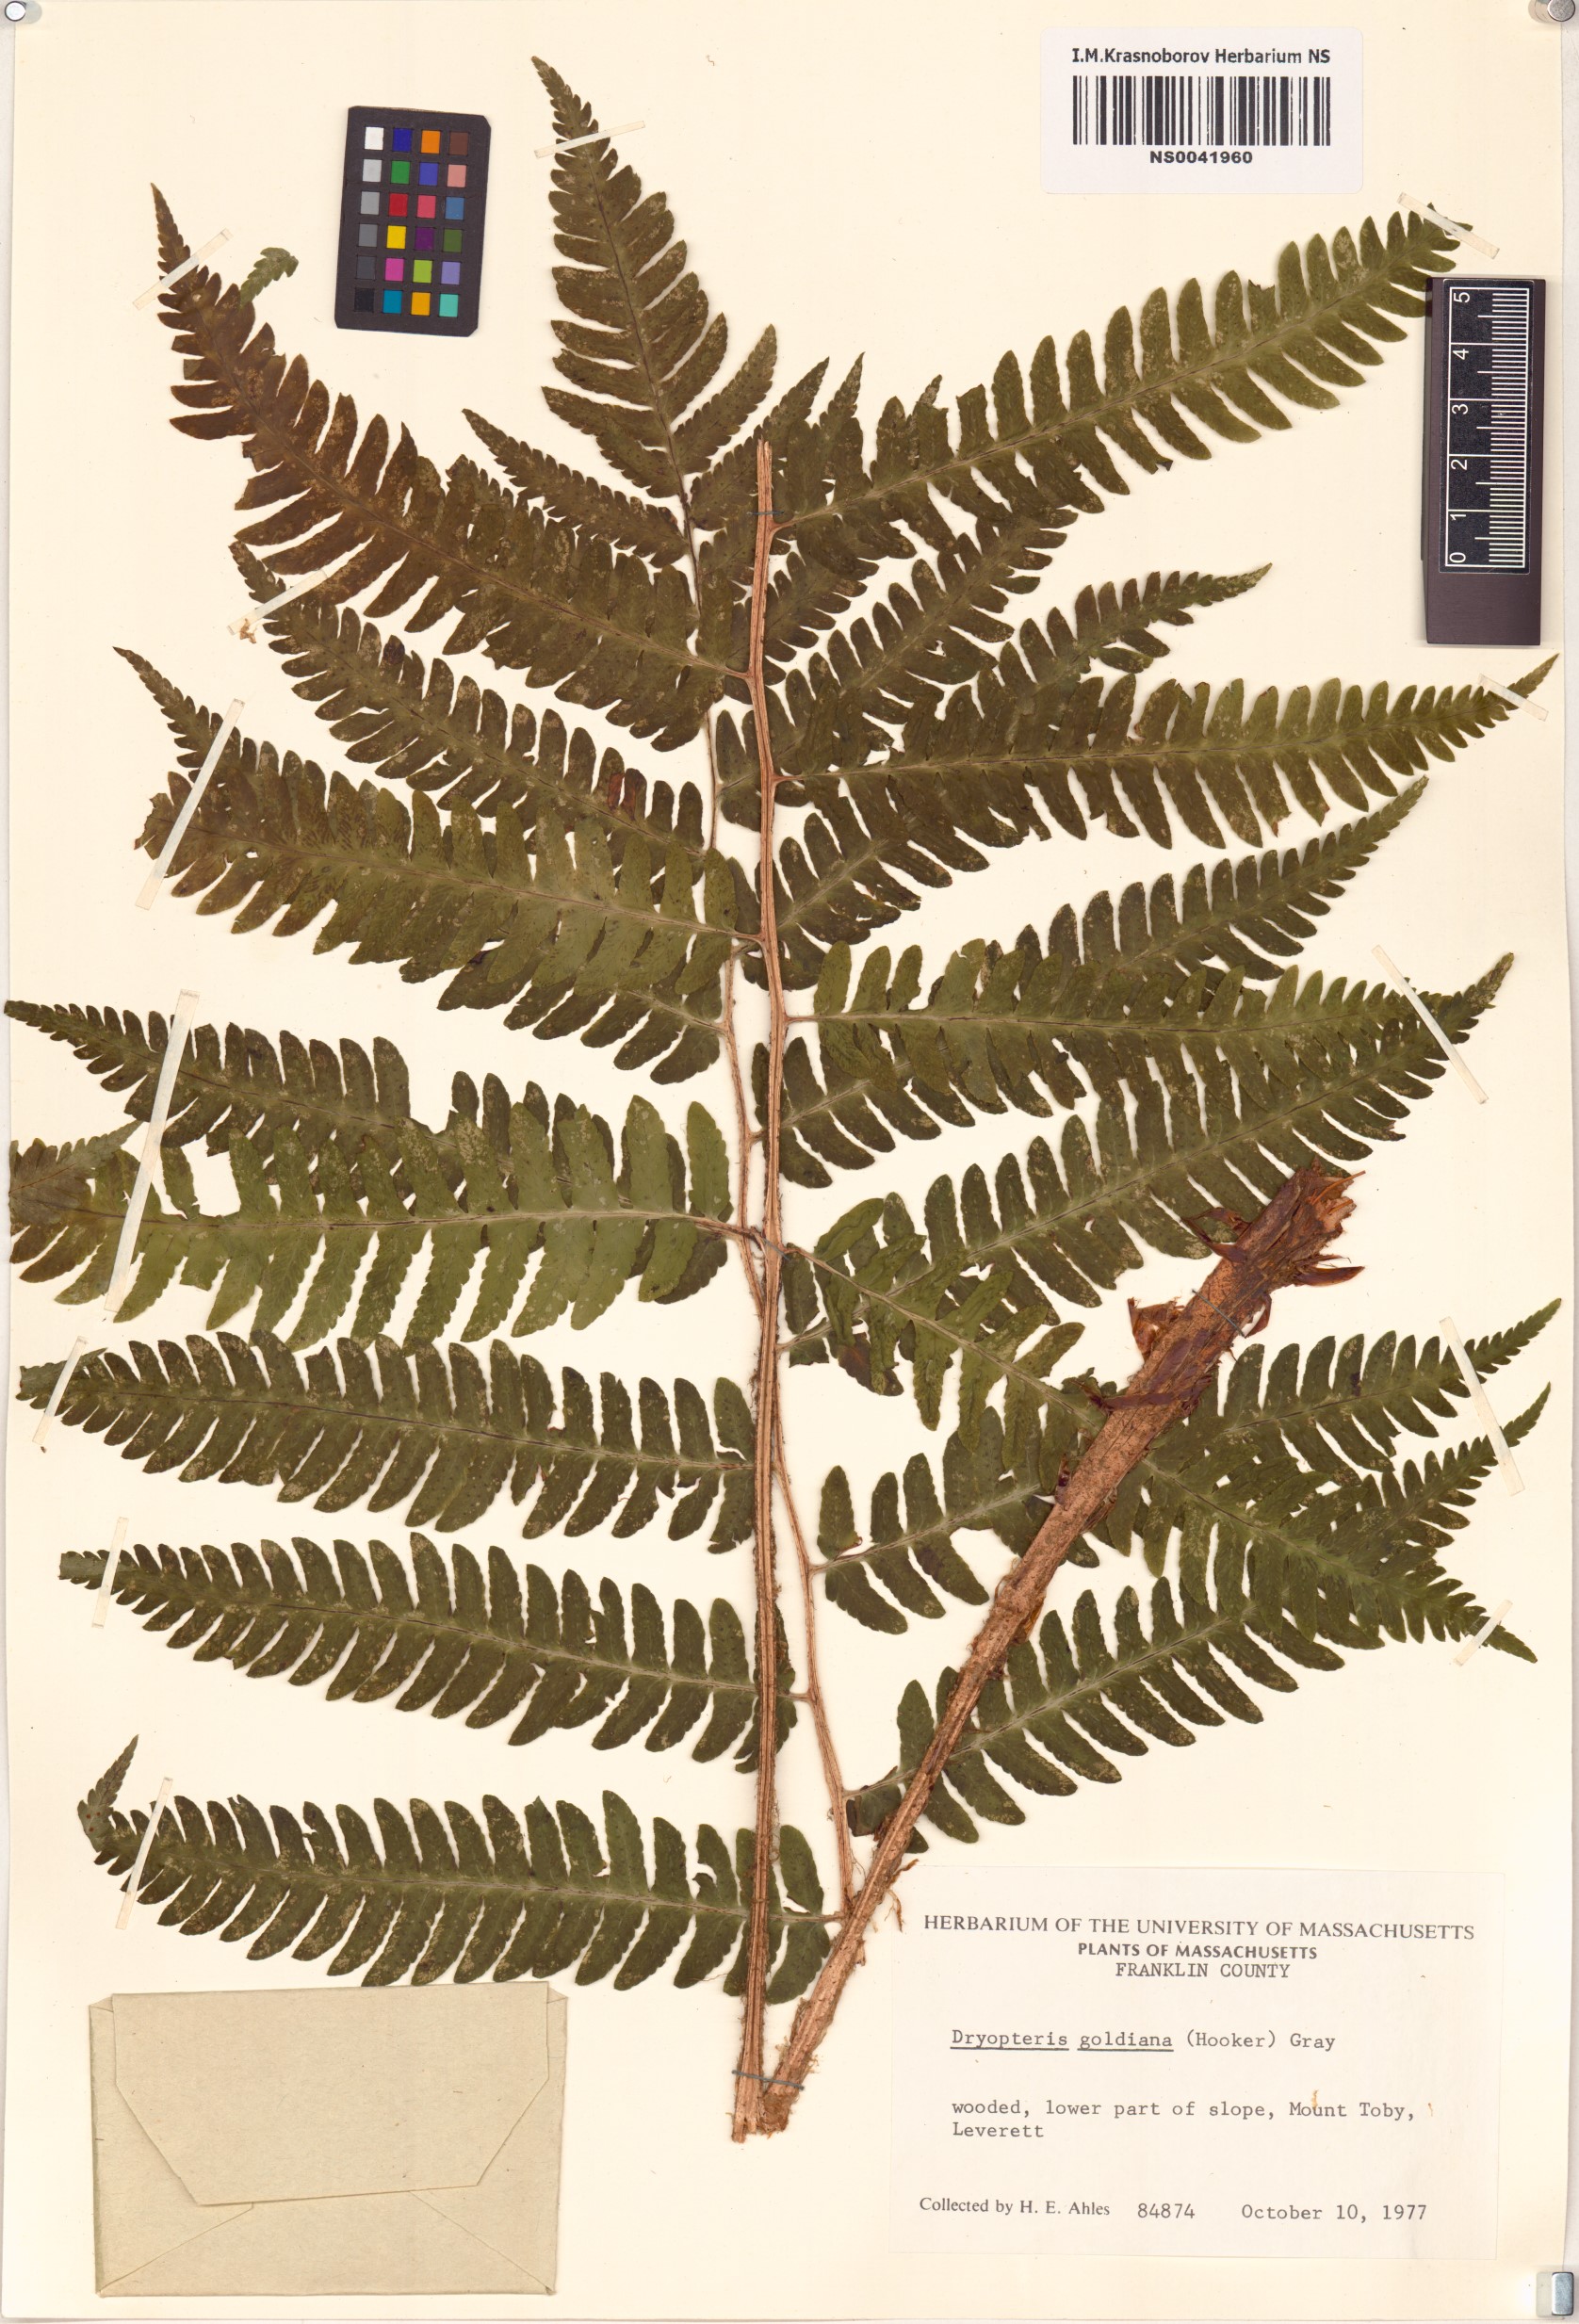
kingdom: Plantae
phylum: Tracheophyta
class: Polypodiopsida
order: Polypodiales
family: Dryopteridaceae
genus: Dryopteris
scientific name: Dryopteris goldieana
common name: Goldie's fern
